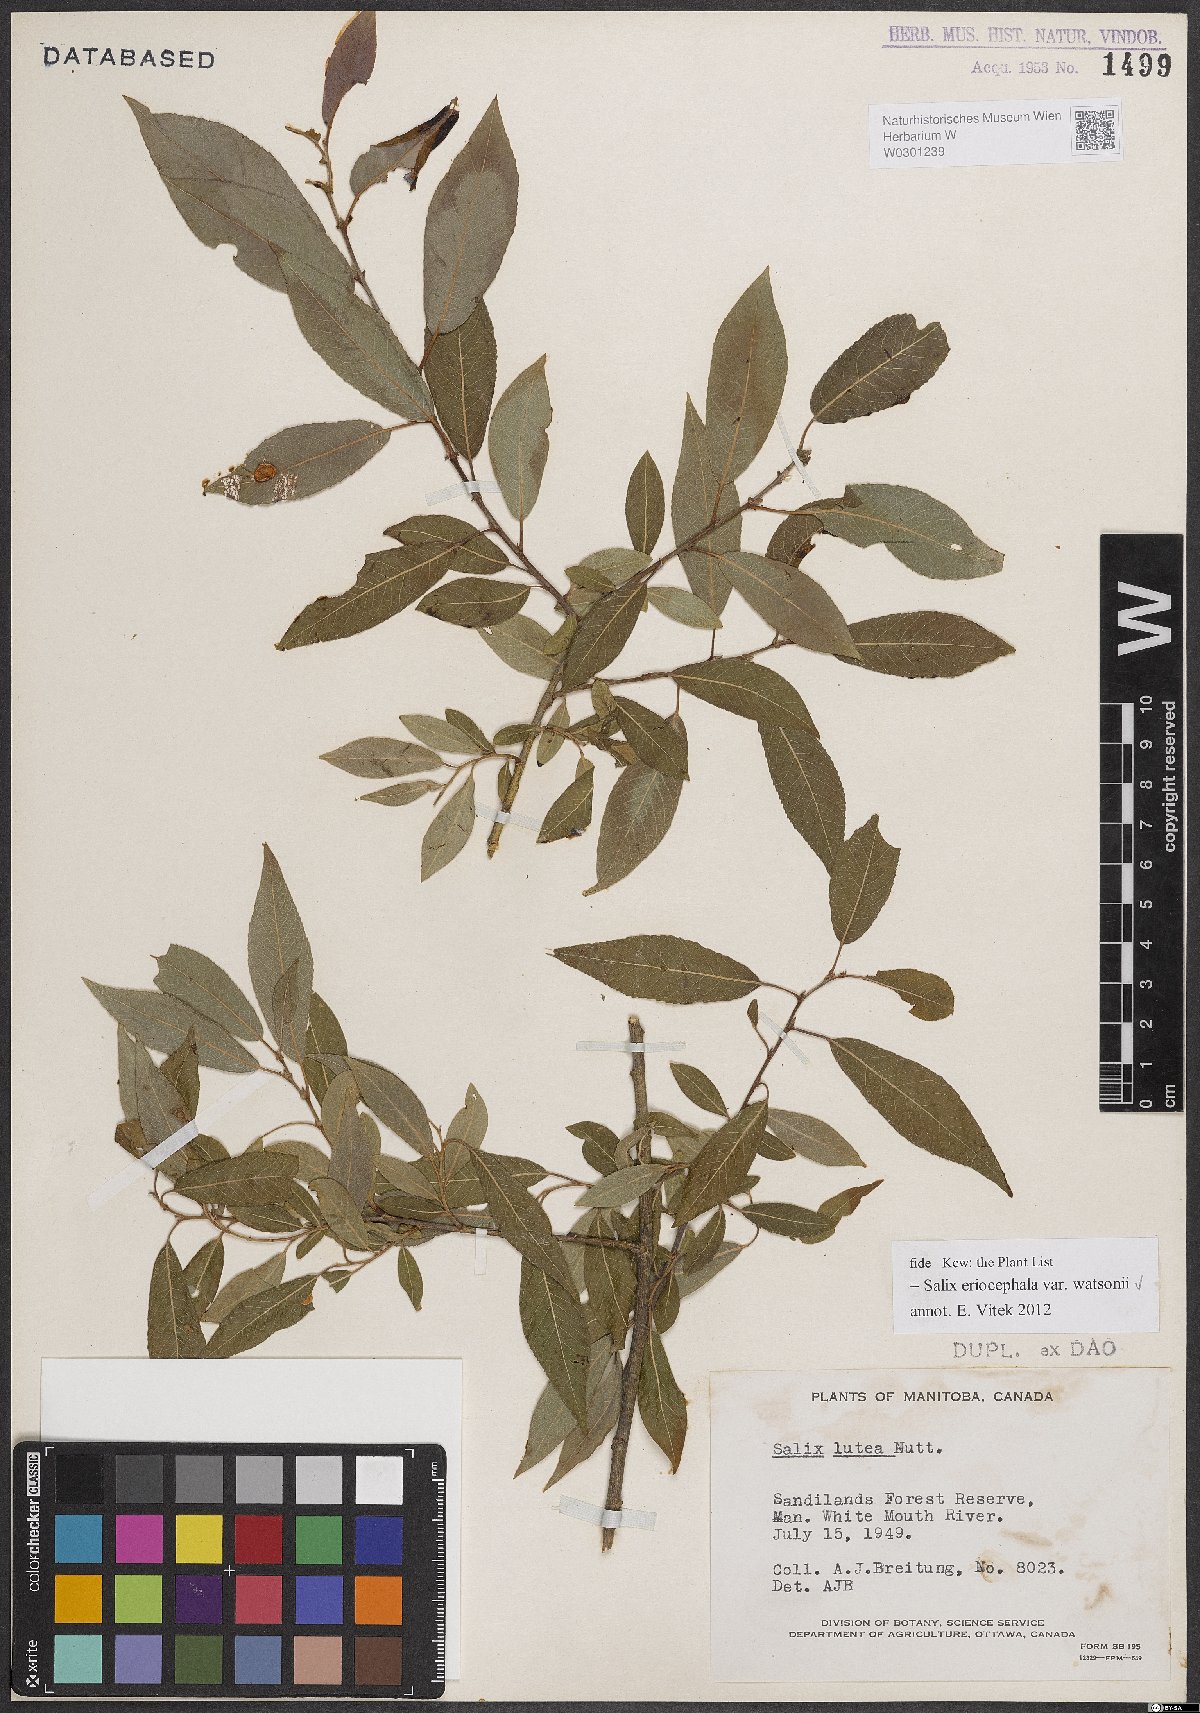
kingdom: Plantae
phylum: Tracheophyta
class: Magnoliopsida
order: Malpighiales
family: Salicaceae
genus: Salix
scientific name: Salix lutea
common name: Yellow willow
